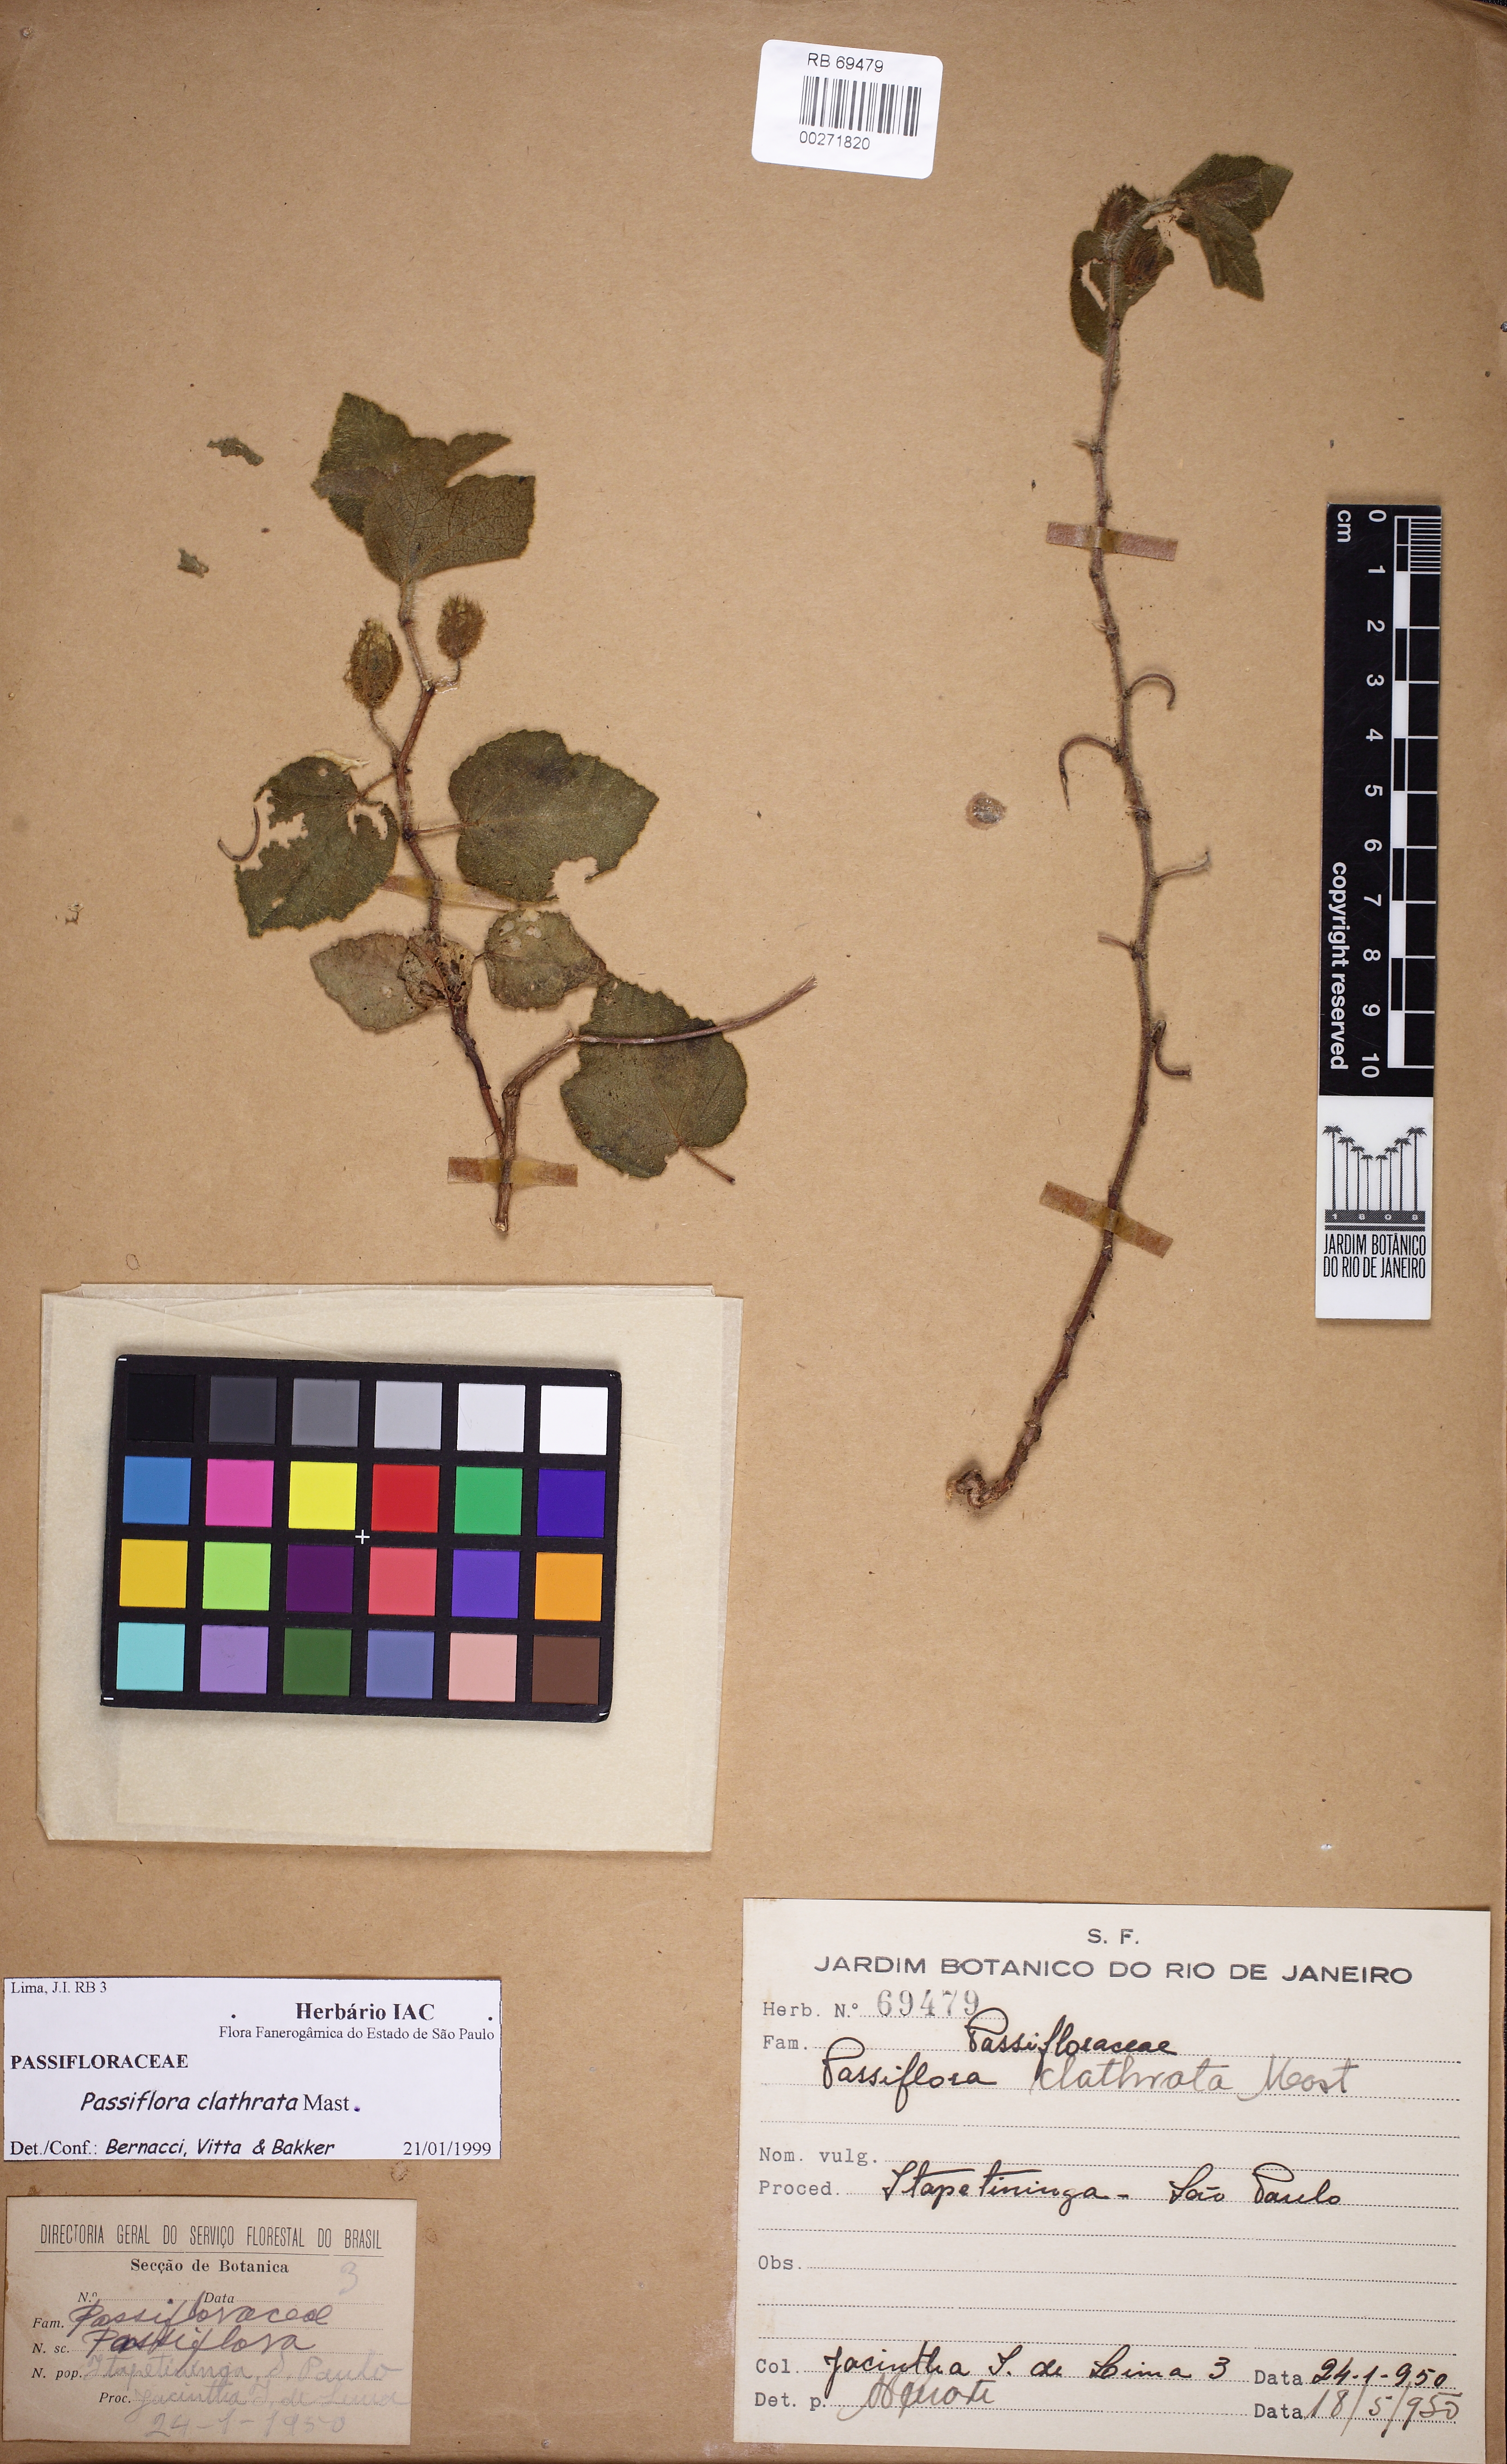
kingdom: Plantae
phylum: Tracheophyta
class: Magnoliopsida
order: Malpighiales
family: Passifloraceae
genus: Passiflora
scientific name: Passiflora clathrata
